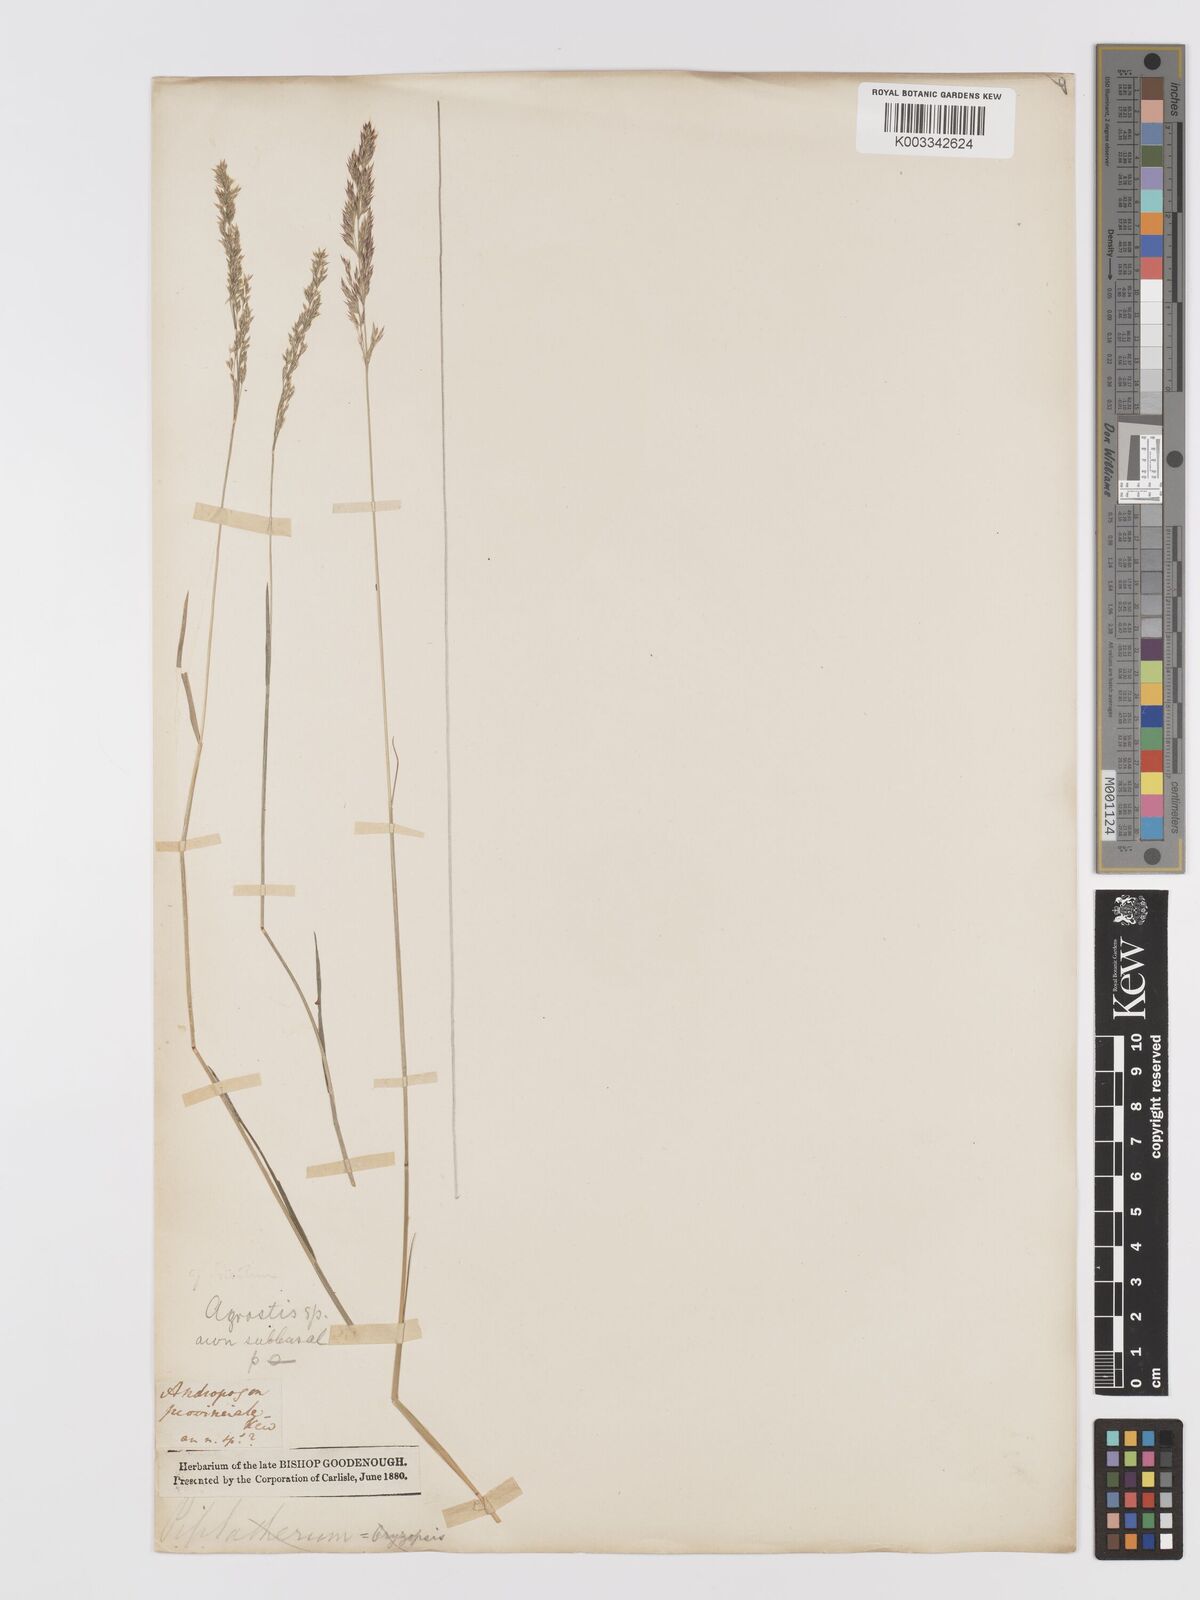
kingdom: Plantae
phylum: Tracheophyta
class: Liliopsida
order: Poales
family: Poaceae
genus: Agrostis
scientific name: Agrostis
